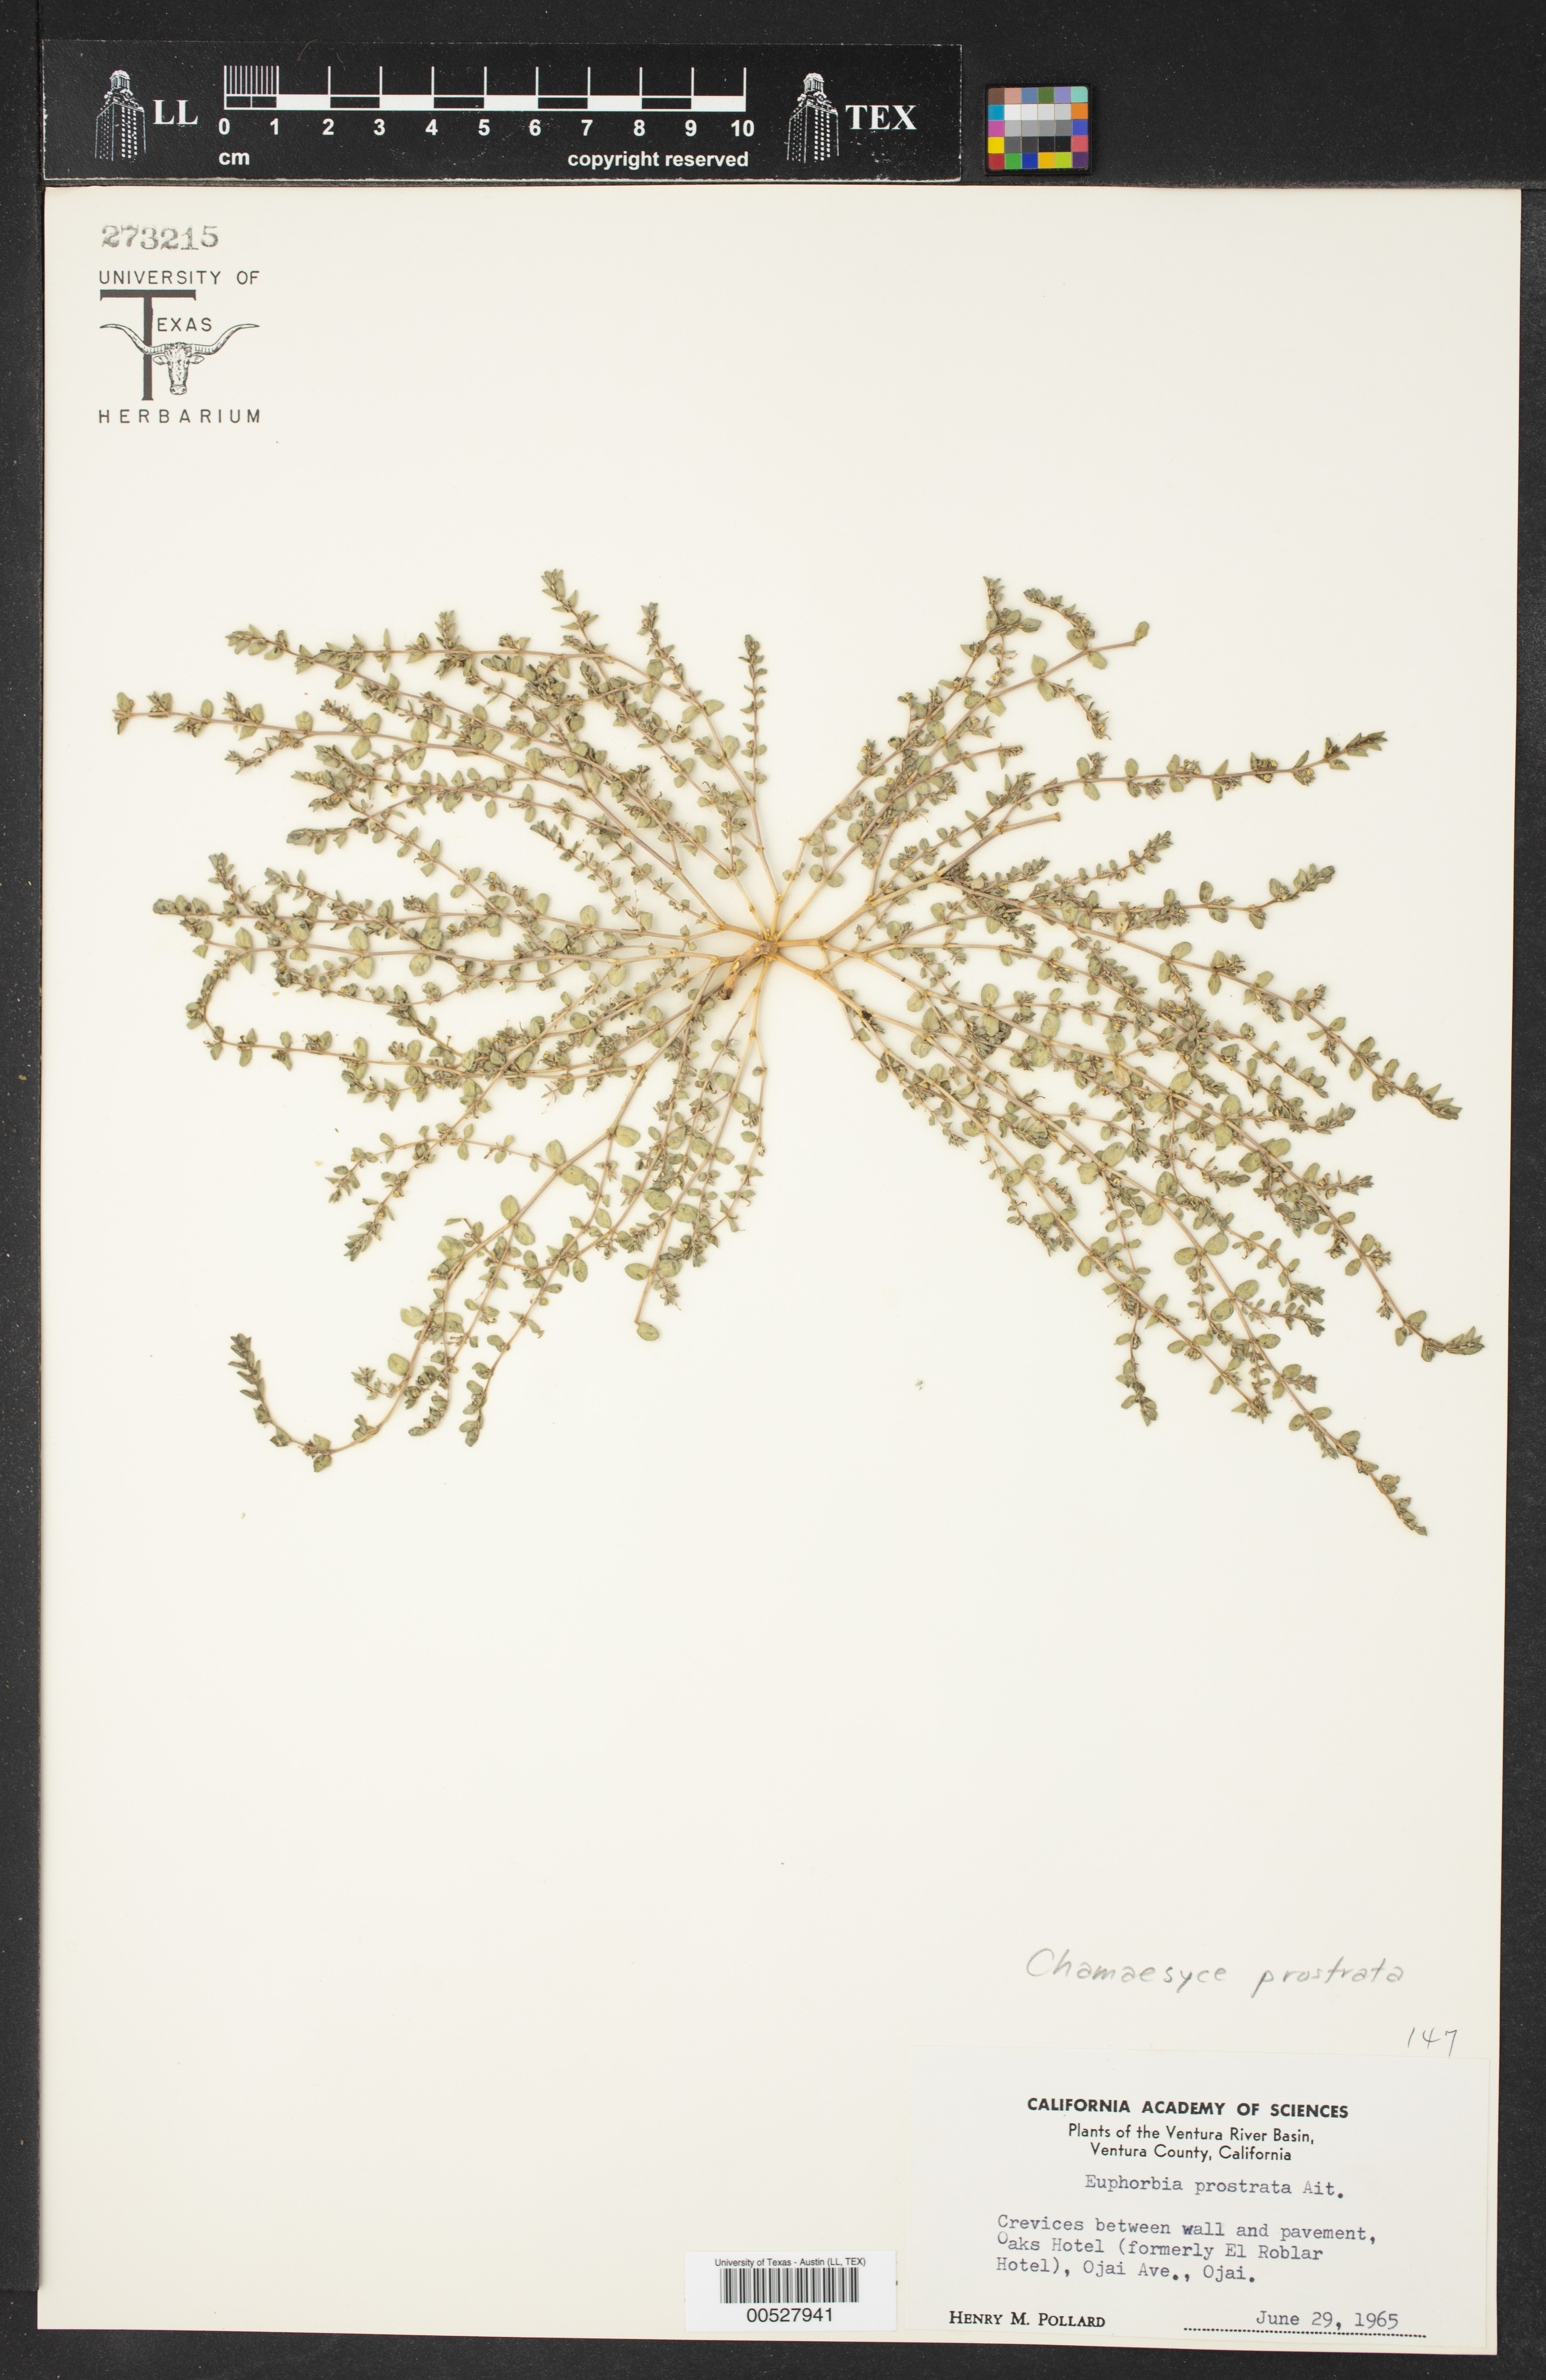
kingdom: Plantae
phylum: Tracheophyta
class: Magnoliopsida
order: Malpighiales
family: Euphorbiaceae
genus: Euphorbia
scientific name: Euphorbia prostrata
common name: Prostrate sandmat
